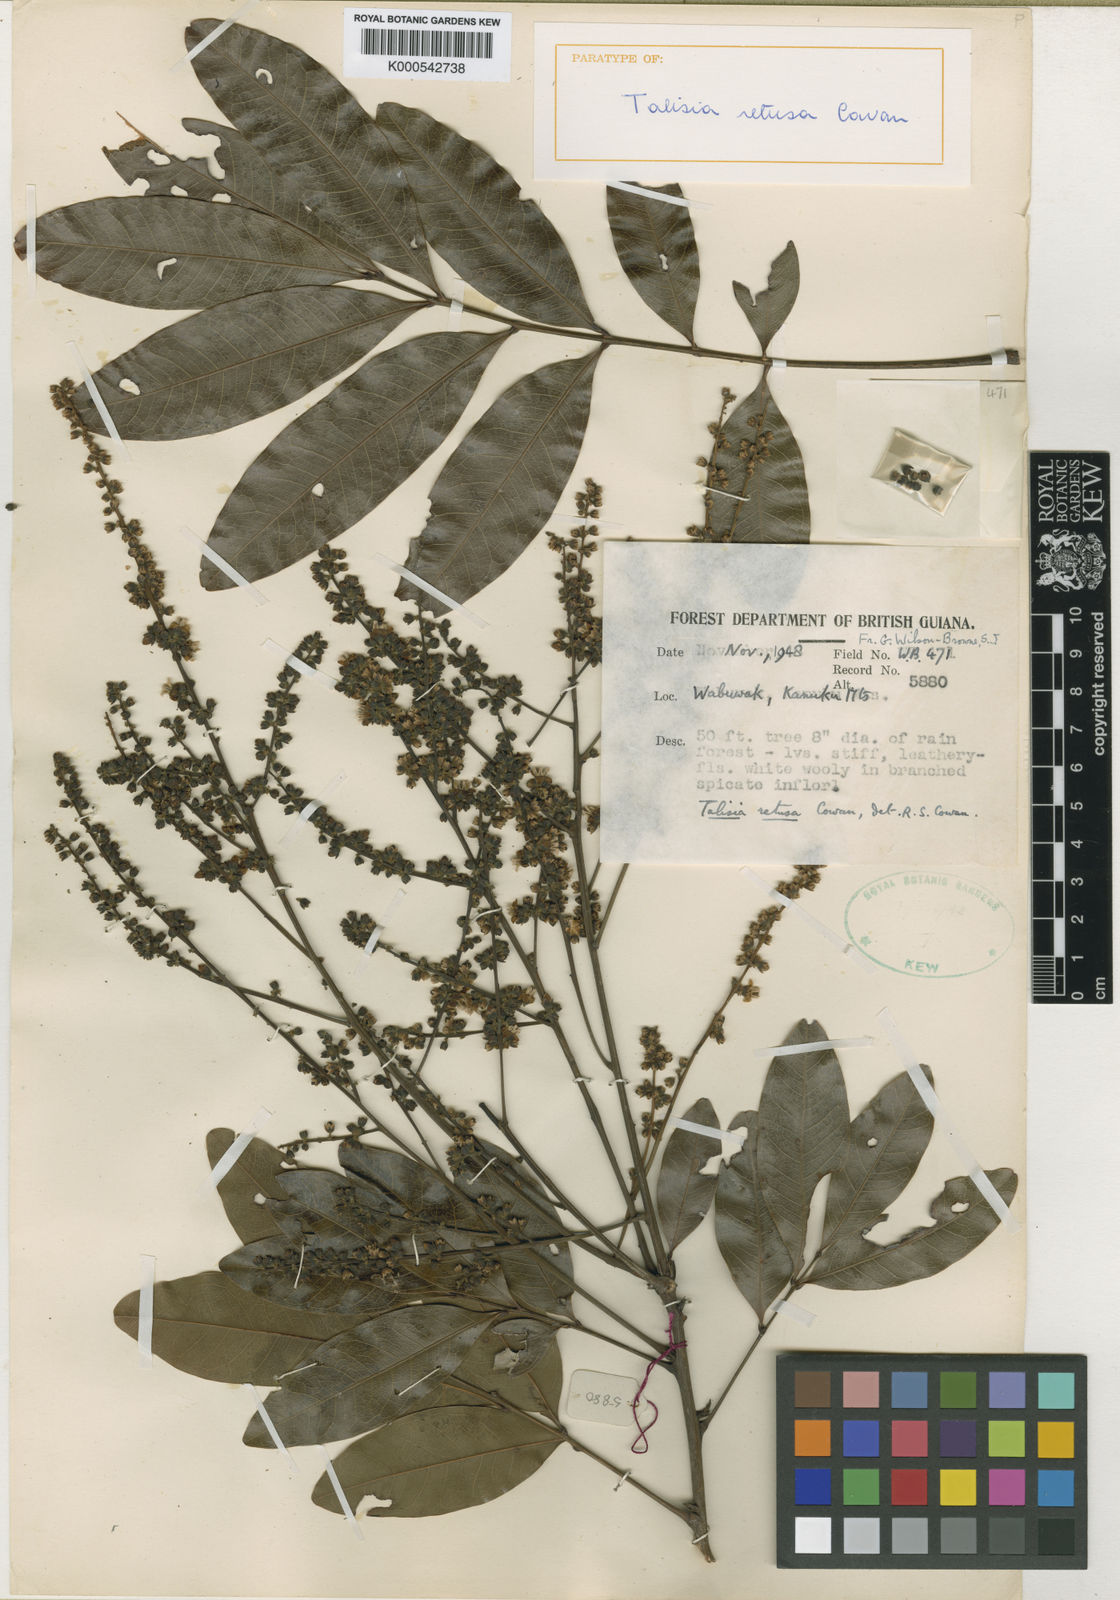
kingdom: Plantae
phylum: Tracheophyta
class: Magnoliopsida
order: Sapindales
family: Sapindaceae
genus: Talisia
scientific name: Talisia retusa
